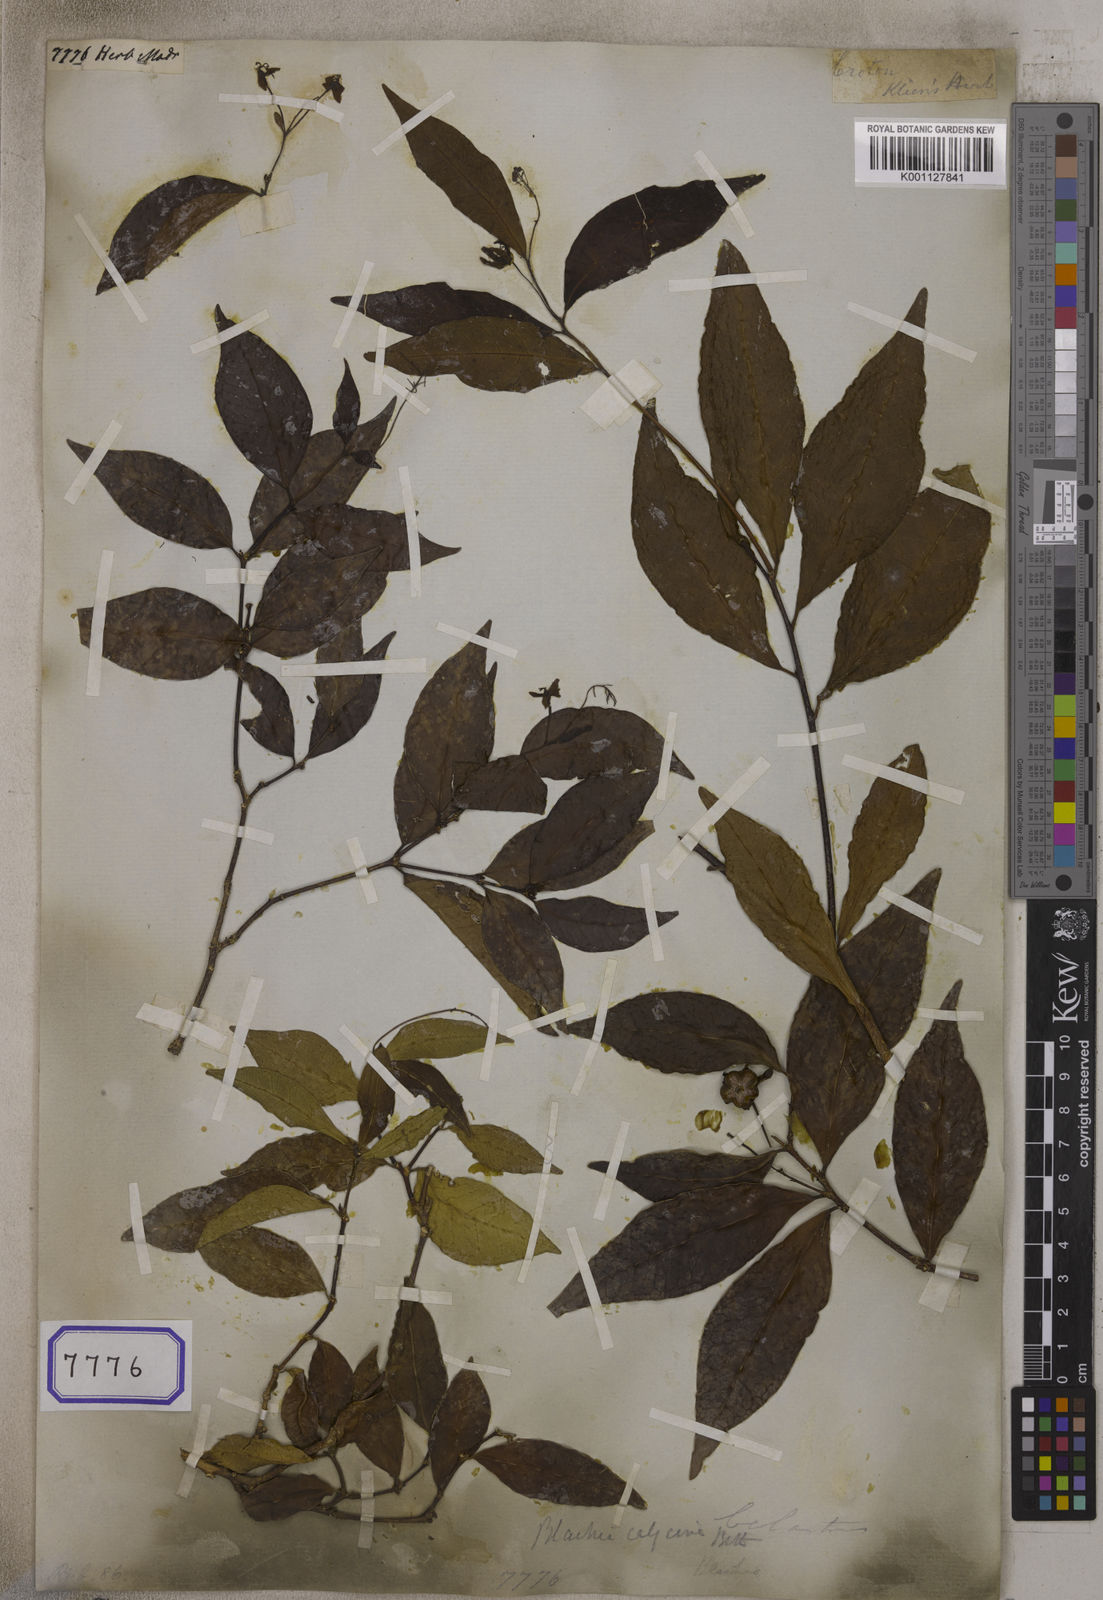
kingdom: Plantae
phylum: Tracheophyta
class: Magnoliopsida
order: Malpighiales
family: Euphorbiaceae
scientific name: Euphorbiaceae
